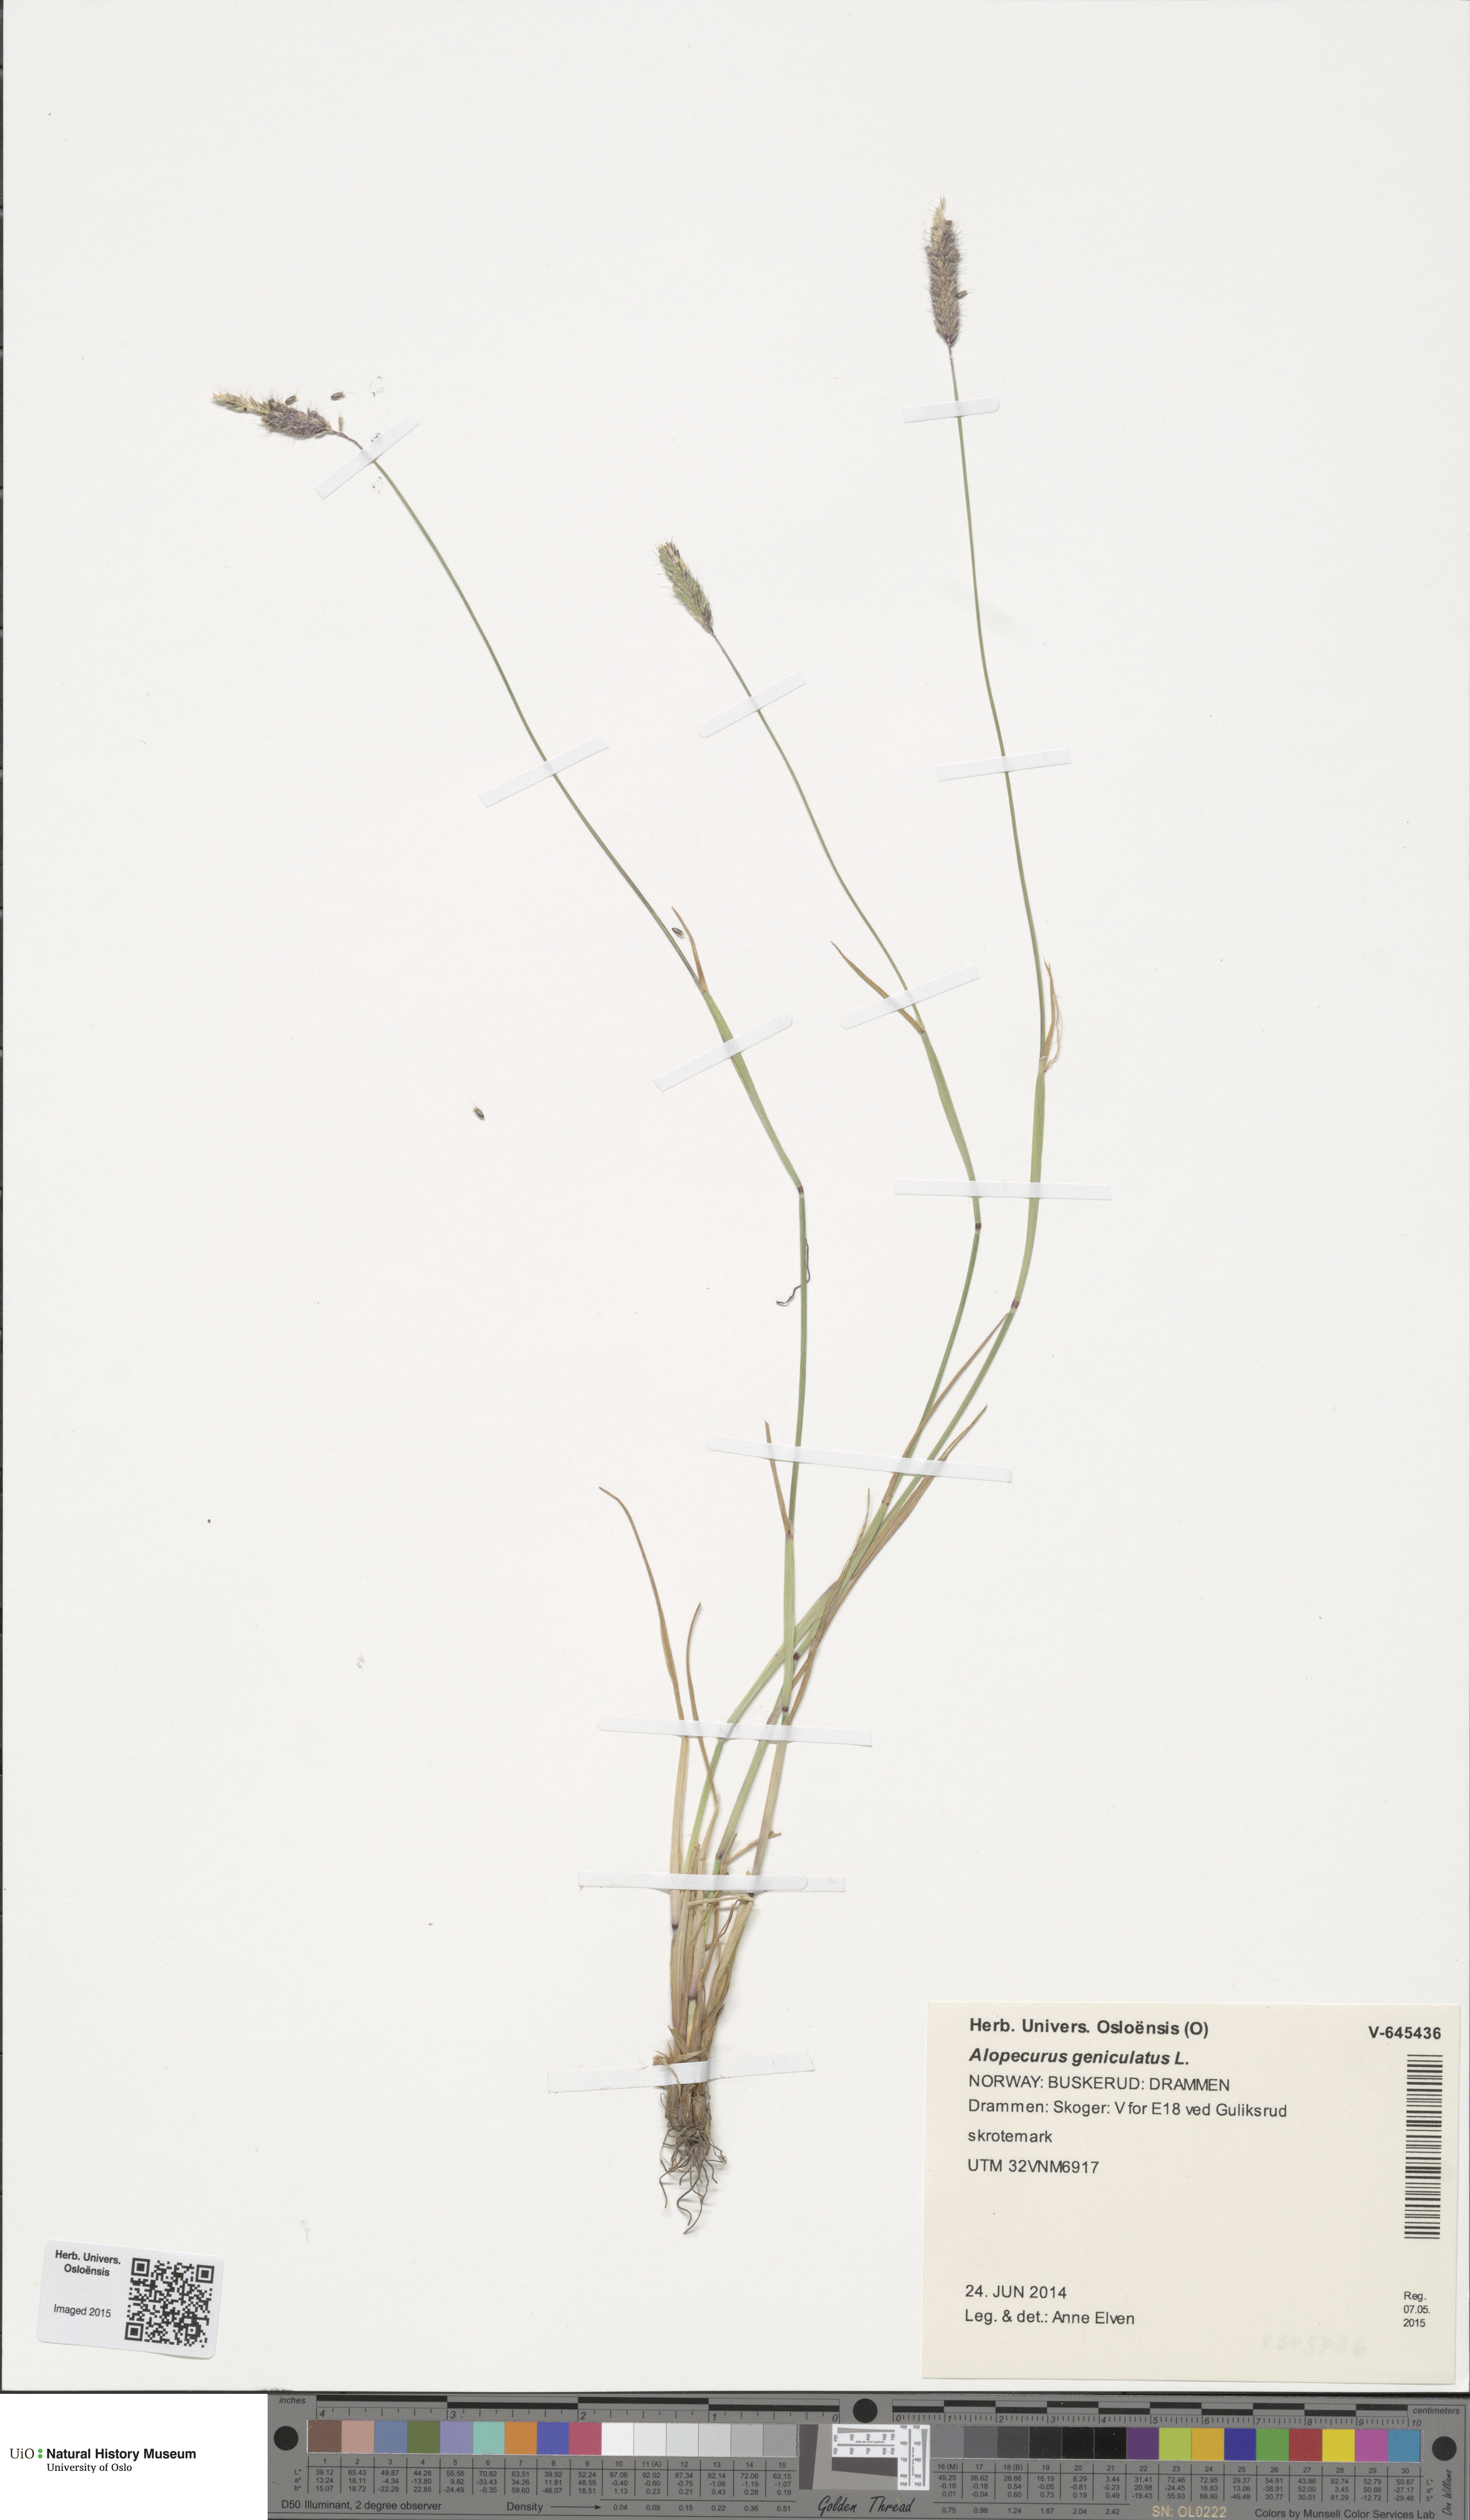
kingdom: Plantae
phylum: Tracheophyta
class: Liliopsida
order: Poales
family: Poaceae
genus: Alopecurus
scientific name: Alopecurus geniculatus
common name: Water foxtail
